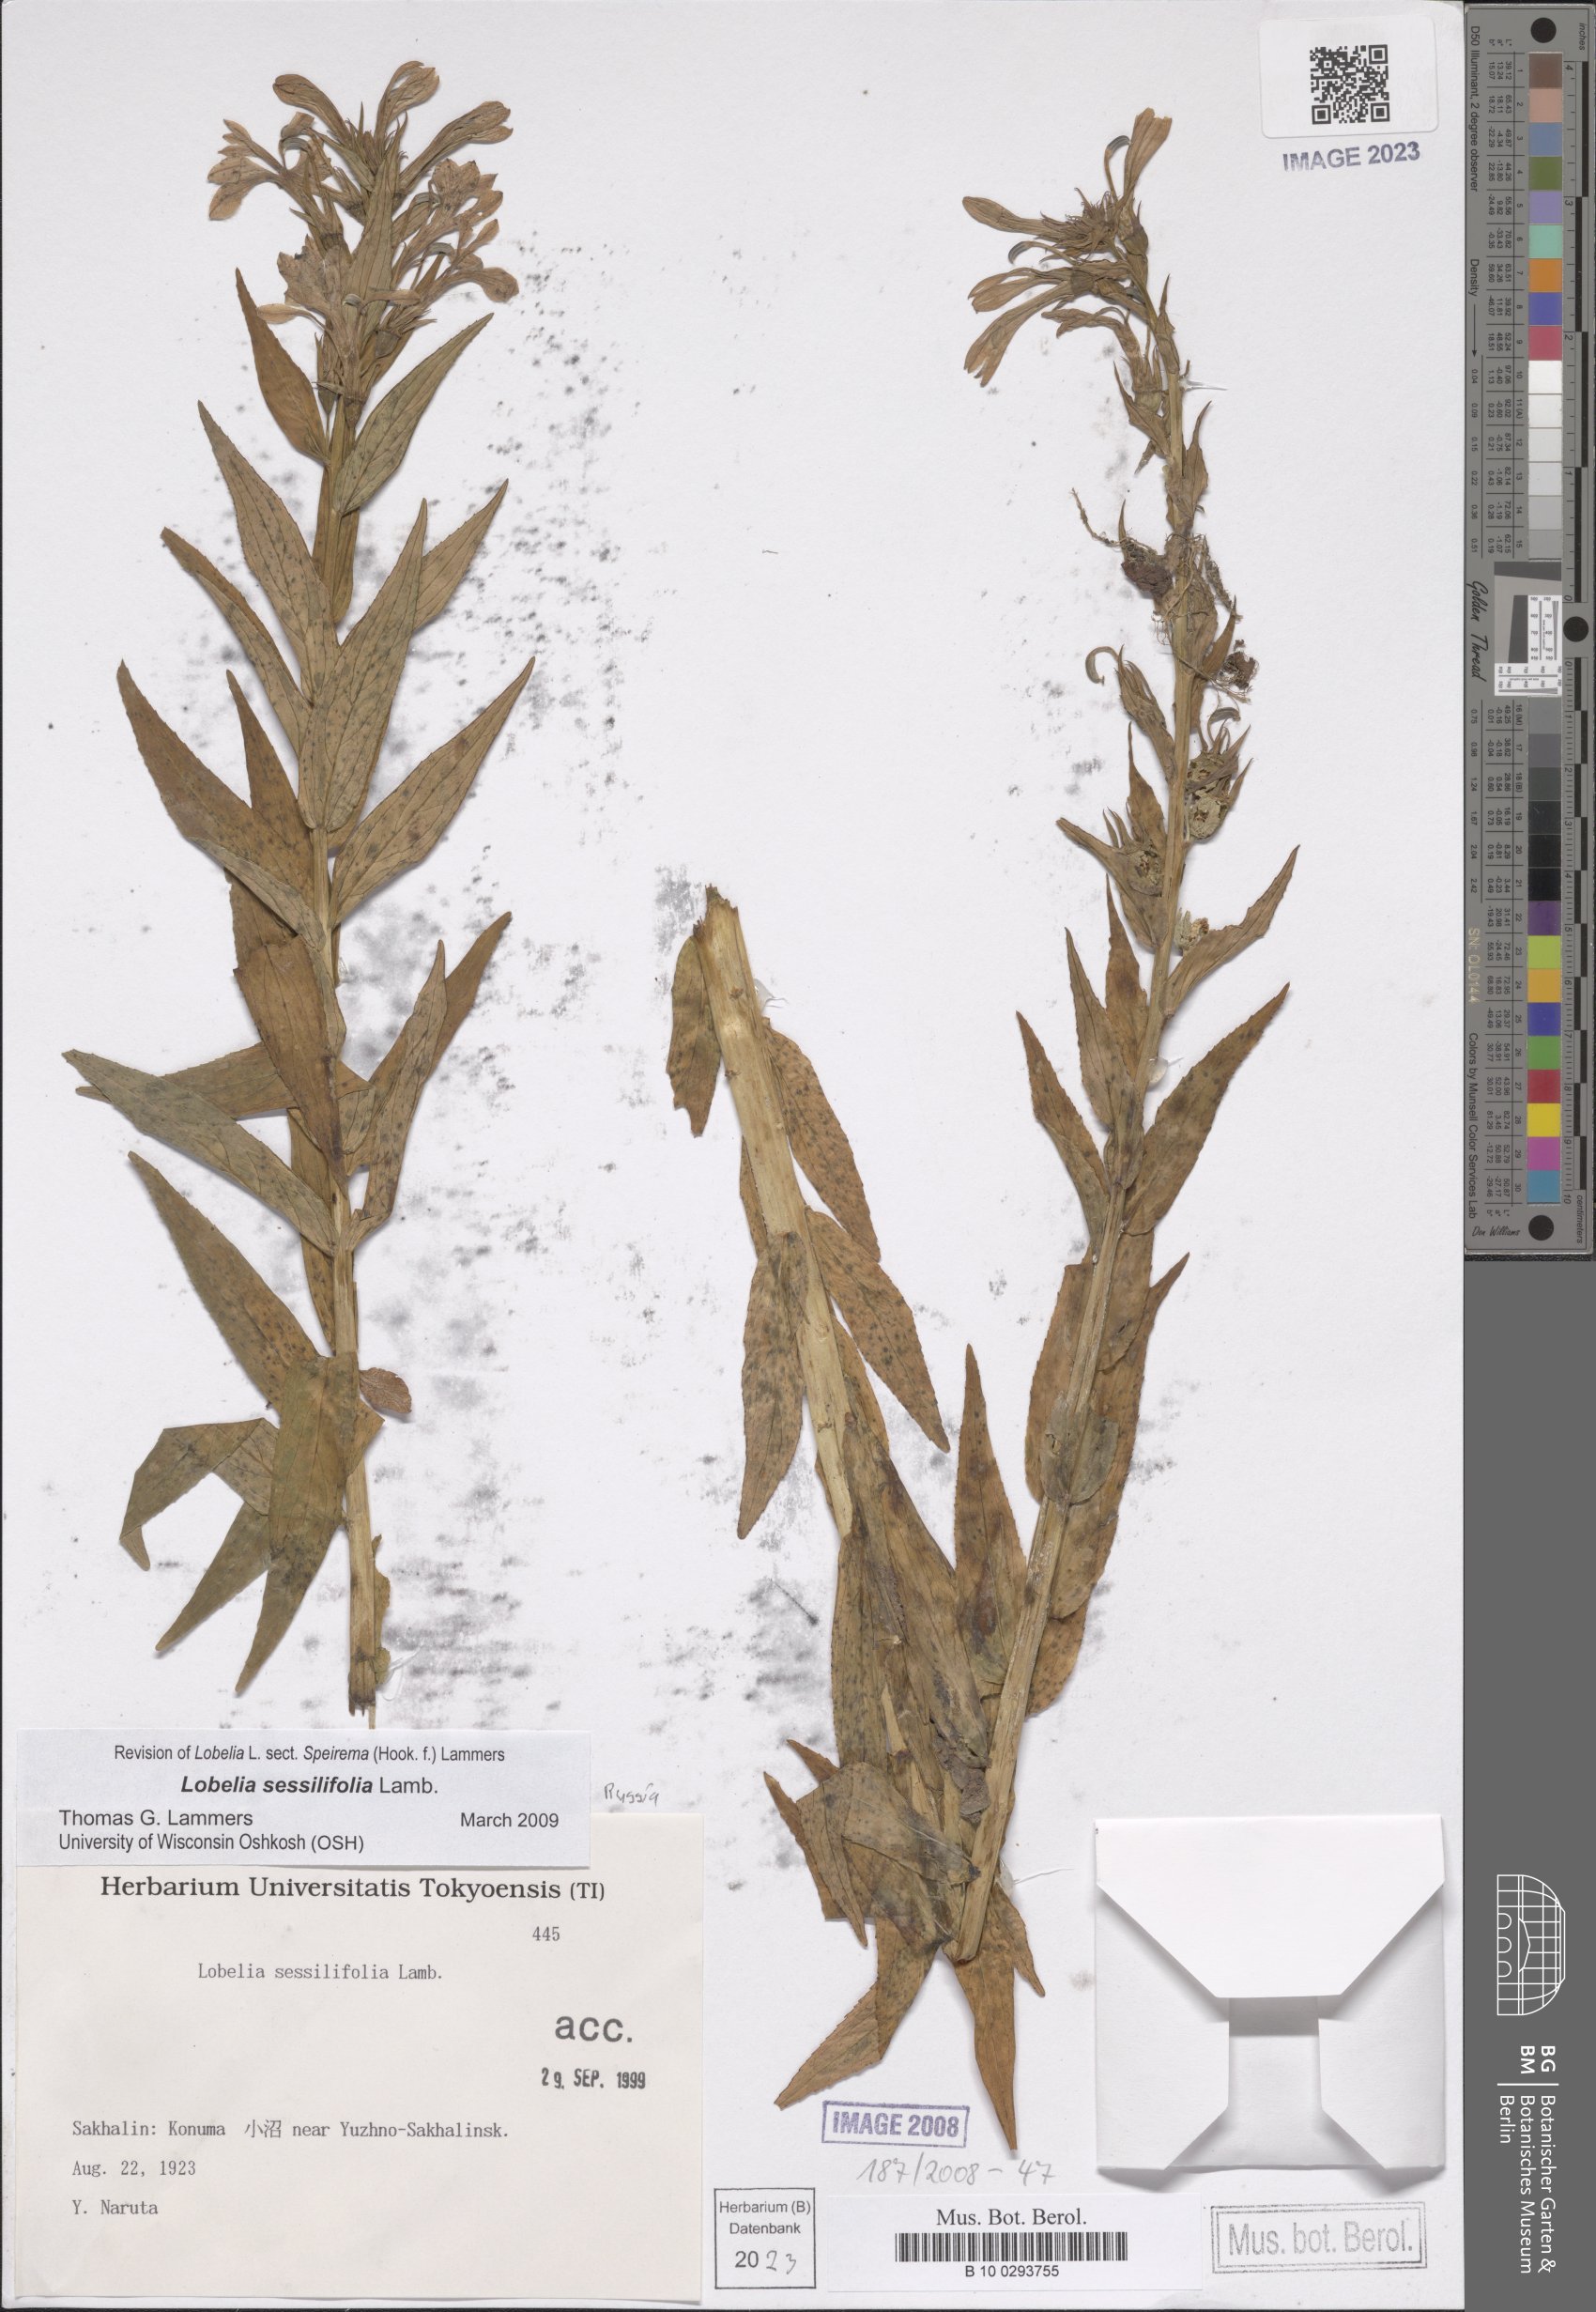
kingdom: Plantae
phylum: Tracheophyta
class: Magnoliopsida
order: Asterales
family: Campanulaceae
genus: Lobelia
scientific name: Lobelia sessilifolia
